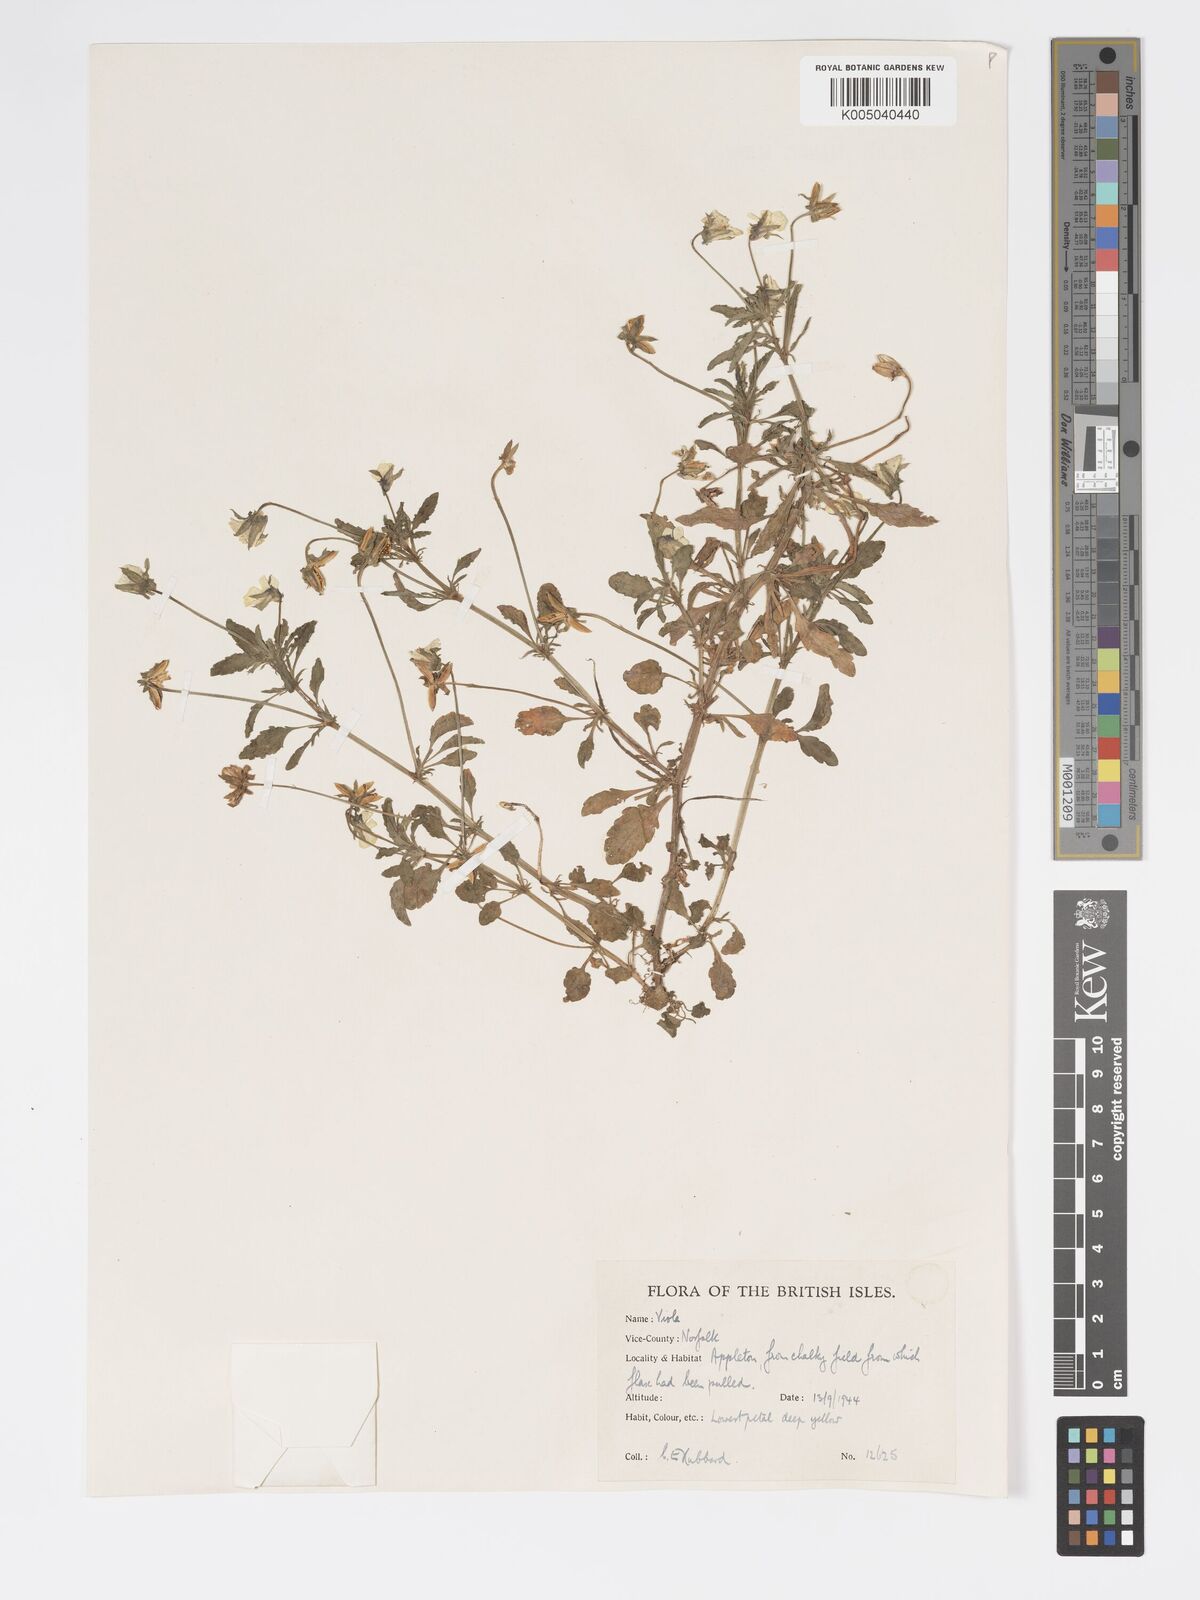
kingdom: Plantae
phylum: Tracheophyta
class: Magnoliopsida
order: Malpighiales
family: Violaceae
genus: Viola
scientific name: Viola arvensis
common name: Field pansy
